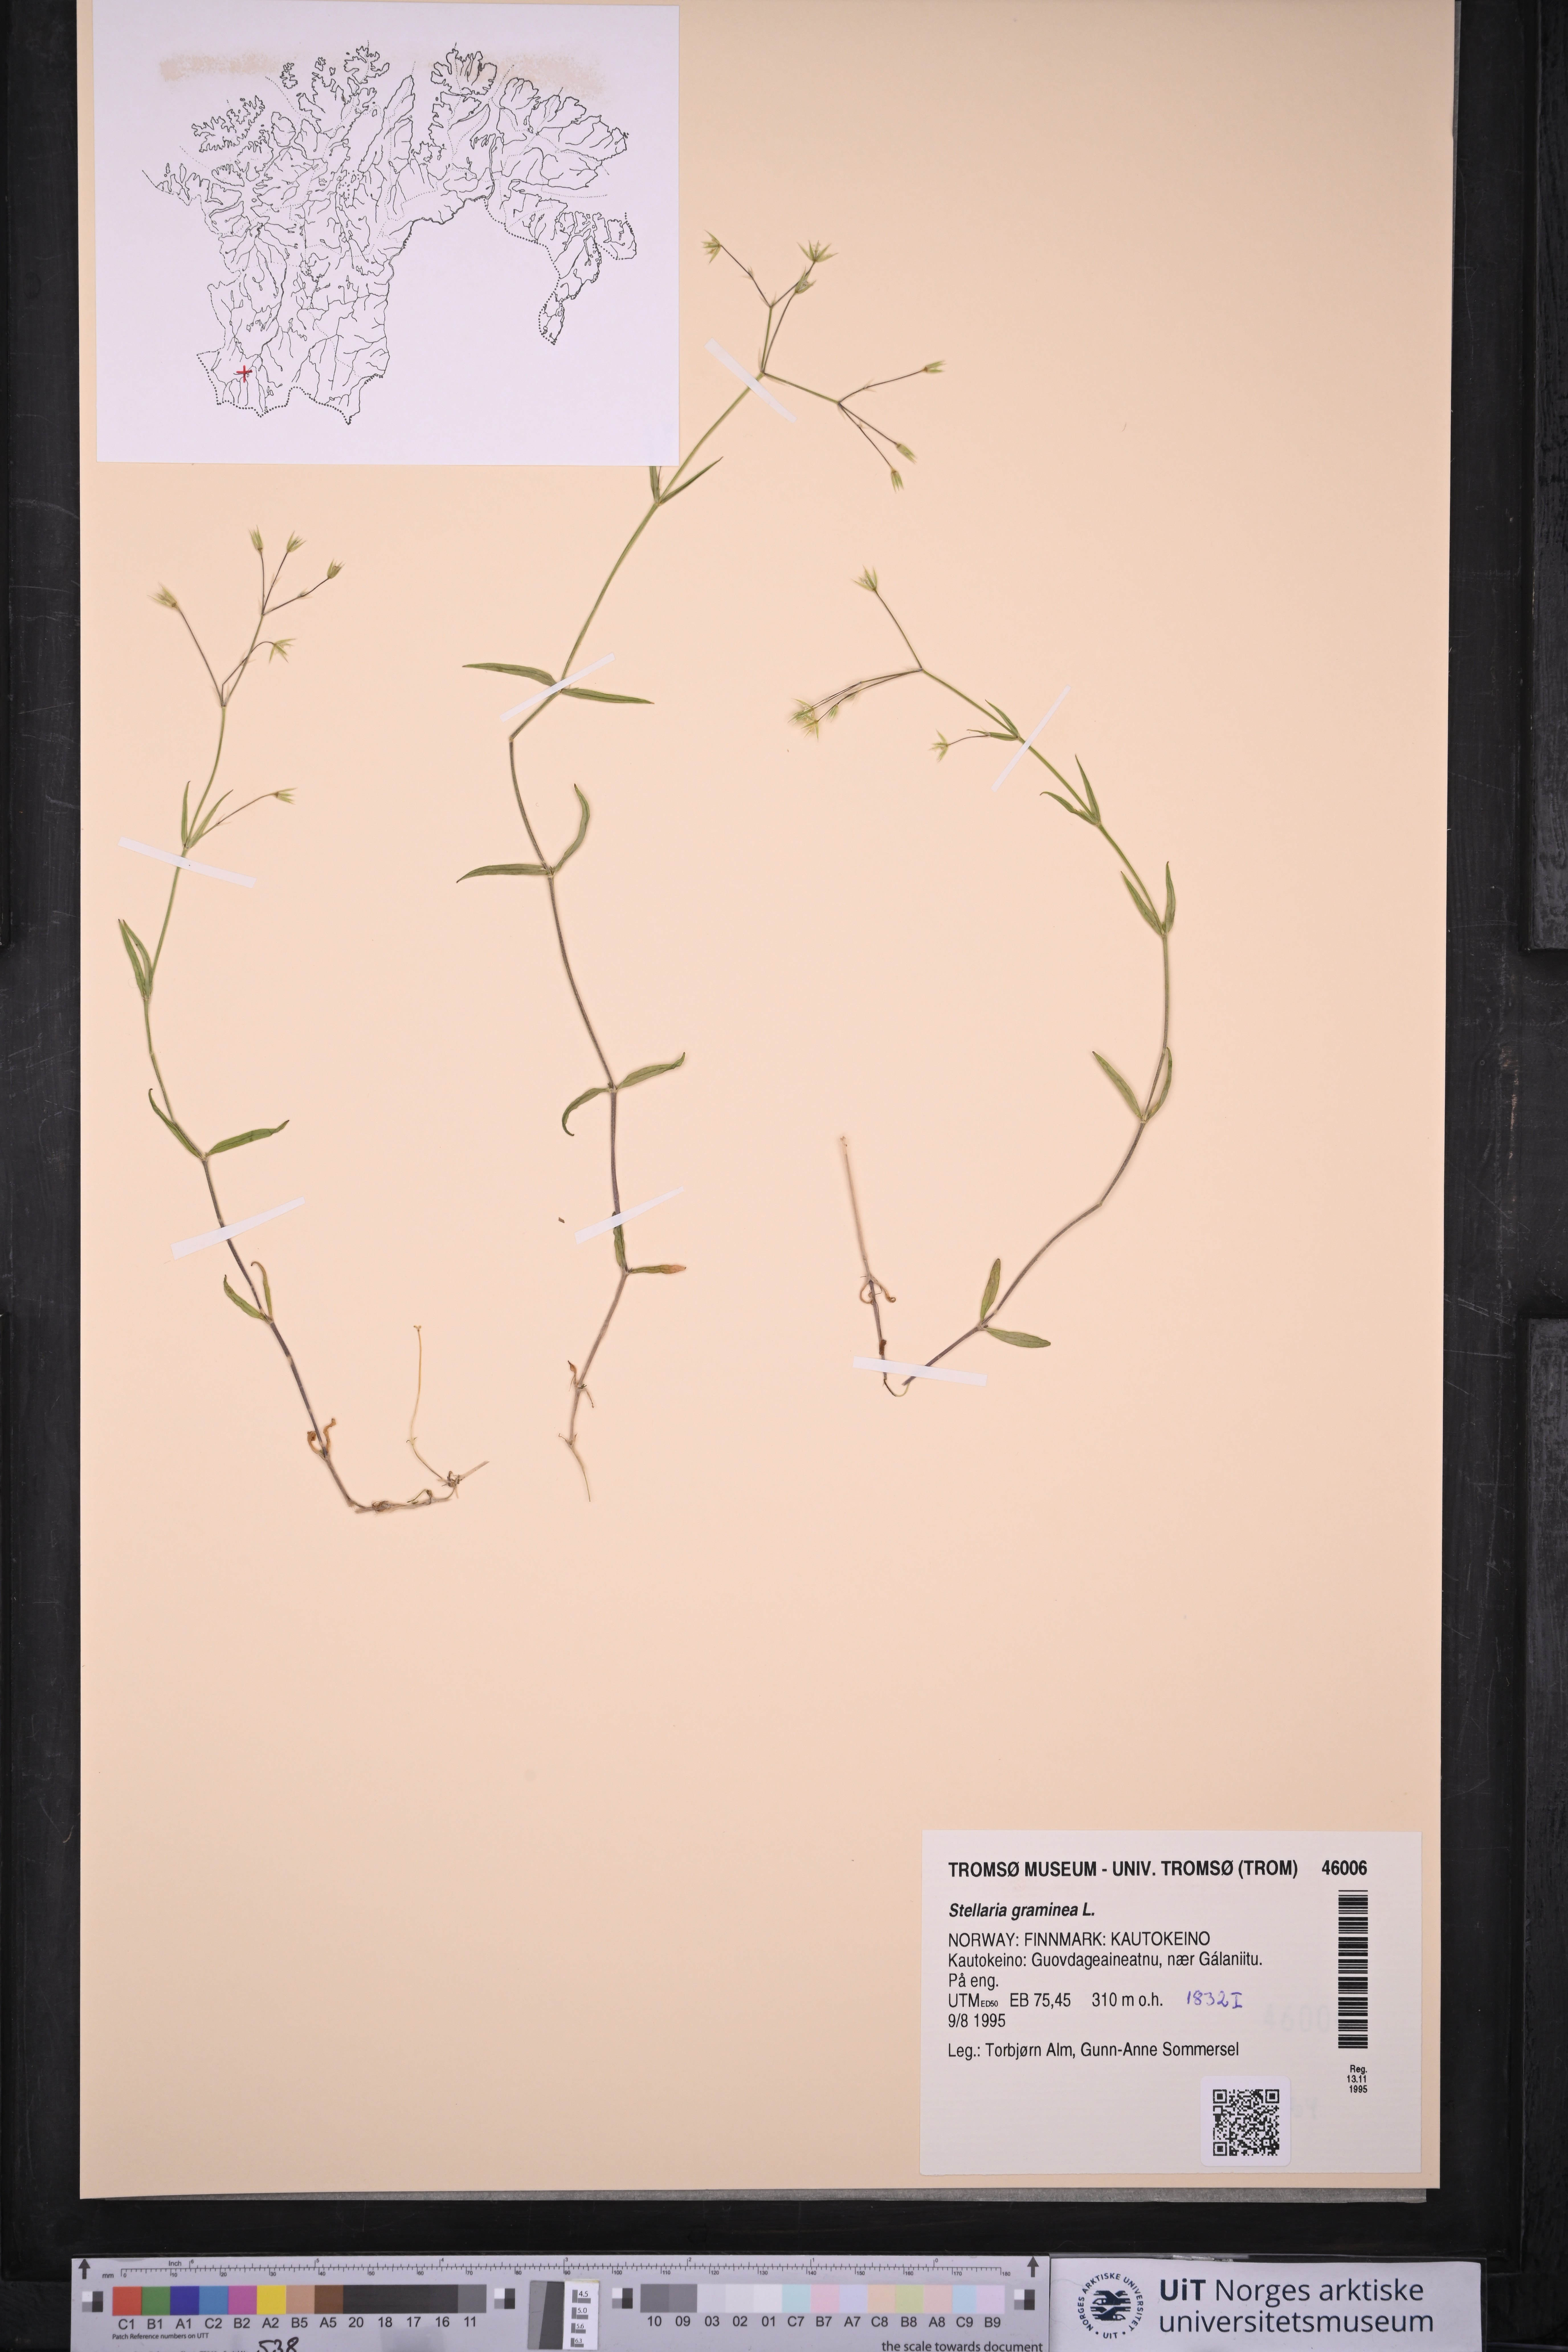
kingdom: Plantae
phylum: Tracheophyta
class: Magnoliopsida
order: Caryophyllales
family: Caryophyllaceae
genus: Stellaria
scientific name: Stellaria graminea
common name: Grass-like starwort
